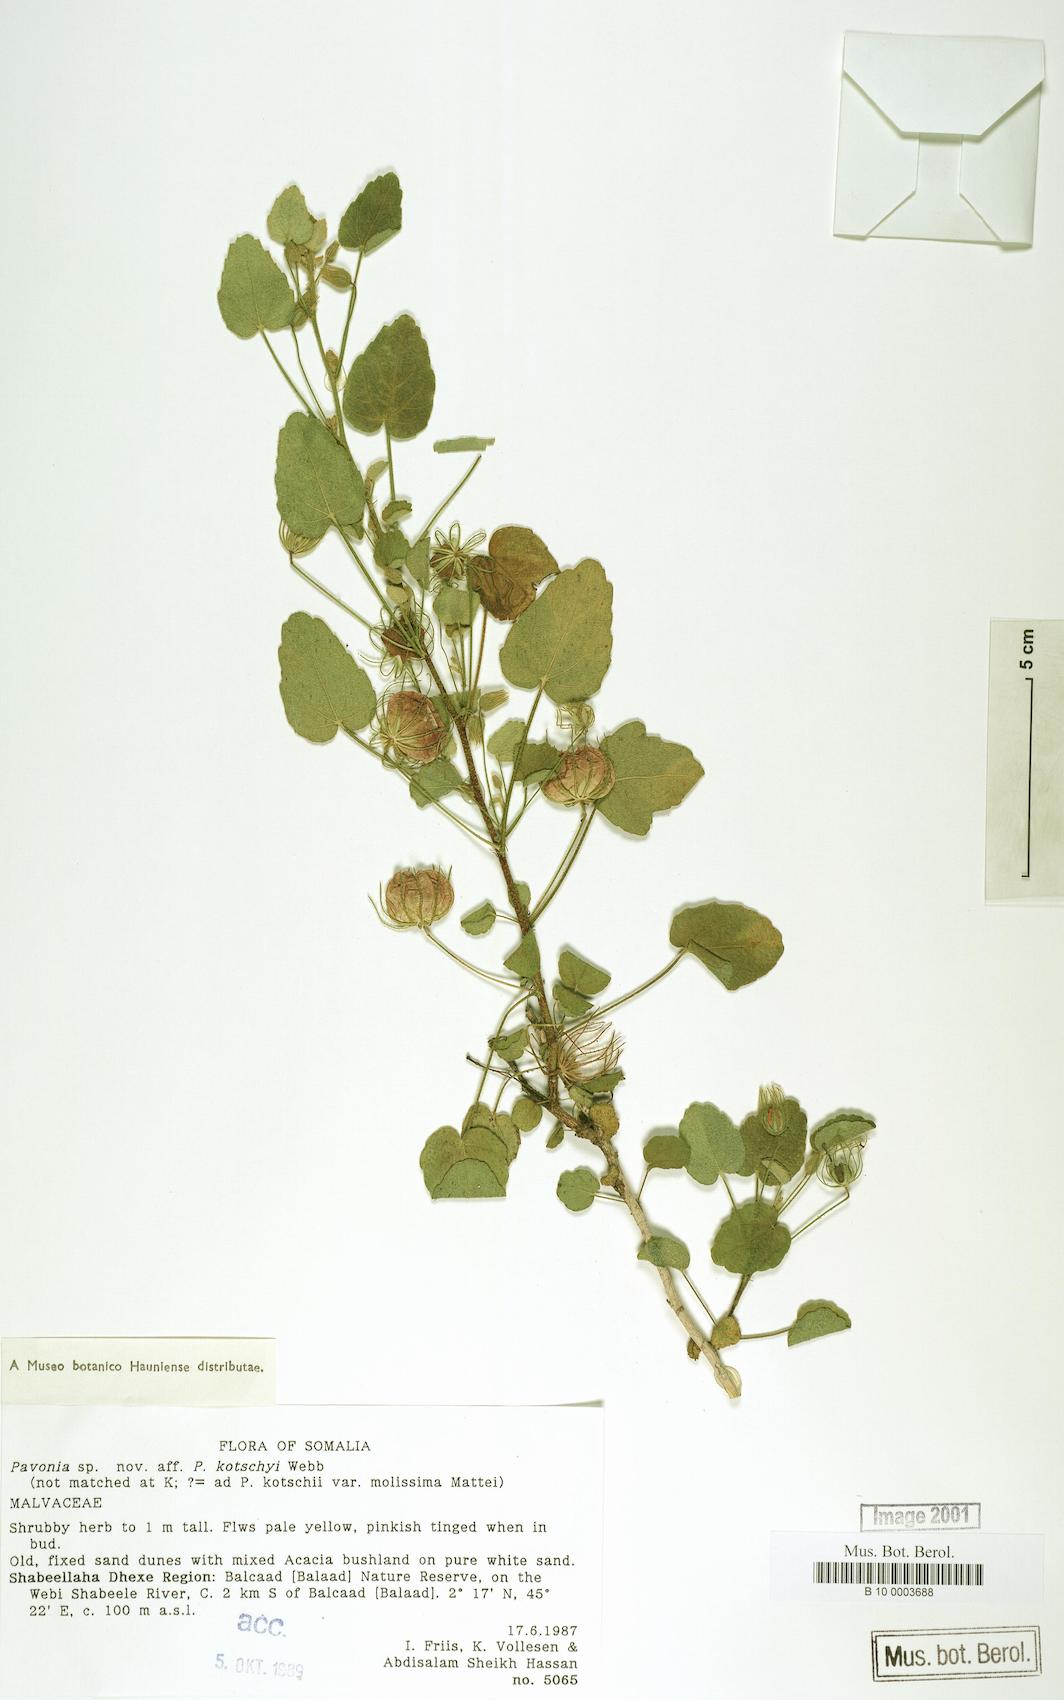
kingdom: Plantae
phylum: Tracheophyta
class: Magnoliopsida
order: Malvales
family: Malvaceae
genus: Pavonia
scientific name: Pavonia kotschyi
